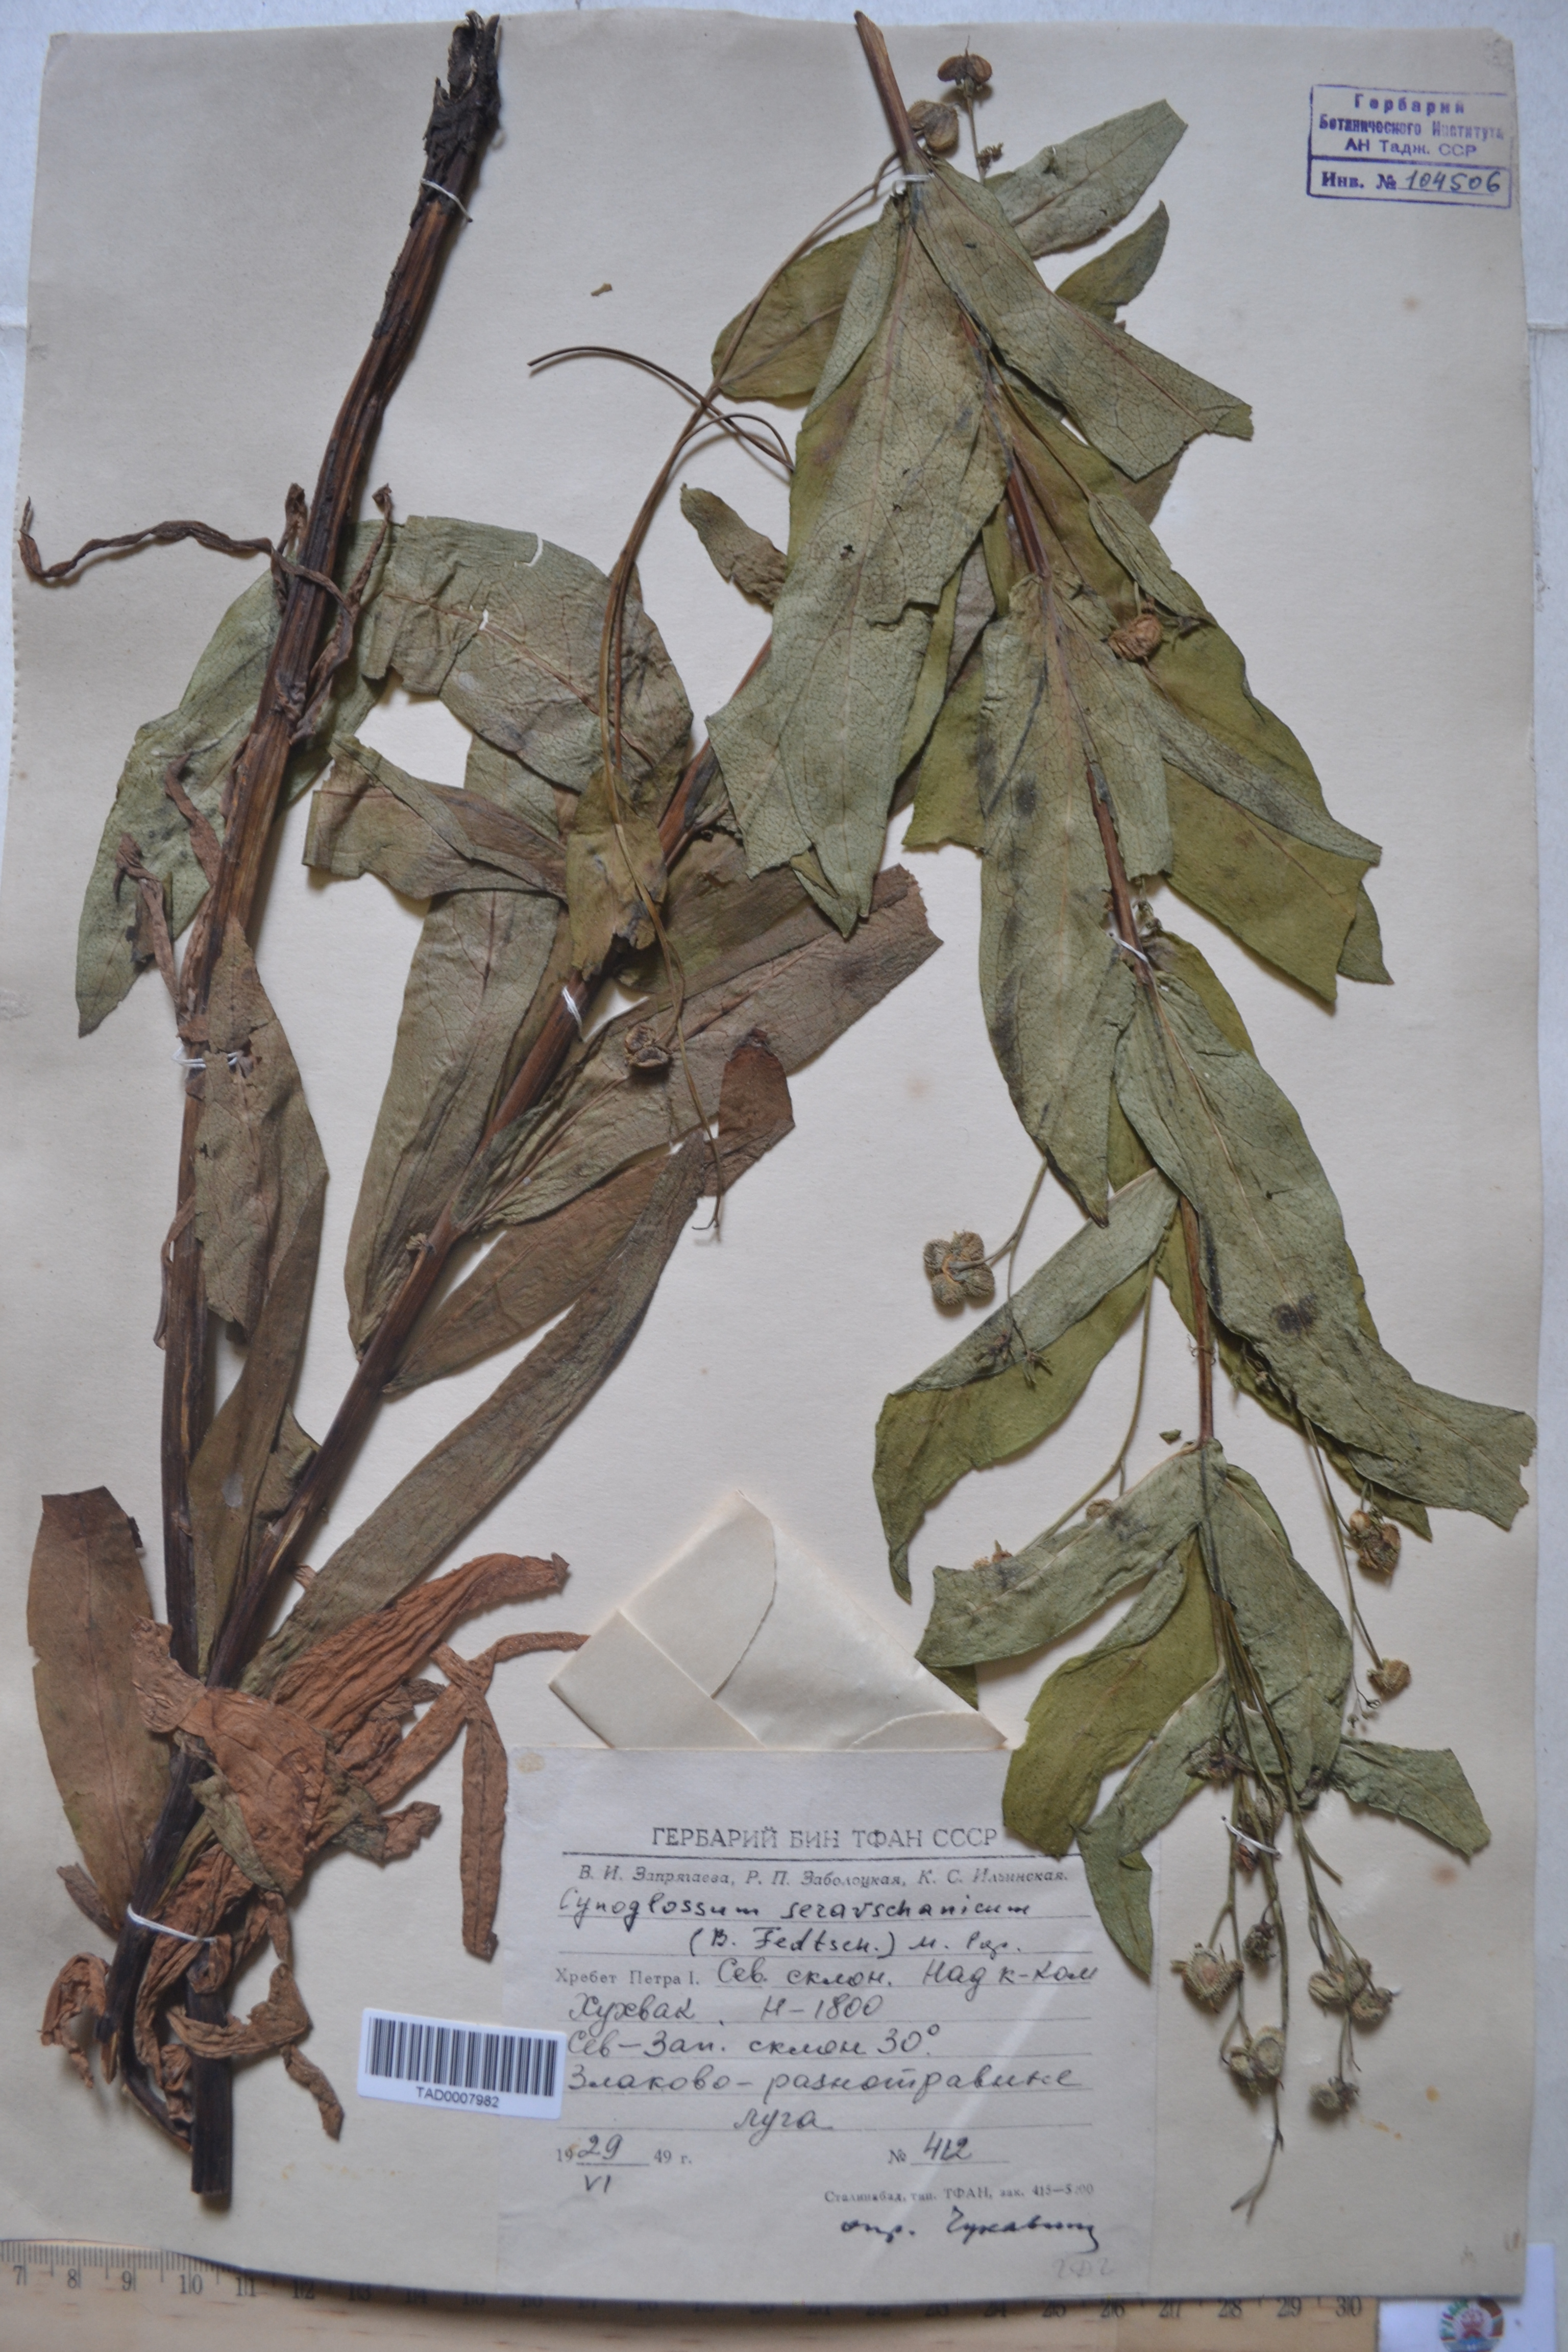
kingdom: Plantae
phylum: Tracheophyta
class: Magnoliopsida
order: Boraginales
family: Boraginaceae
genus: Cynoglossum
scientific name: Cynoglossum seravschanicum
